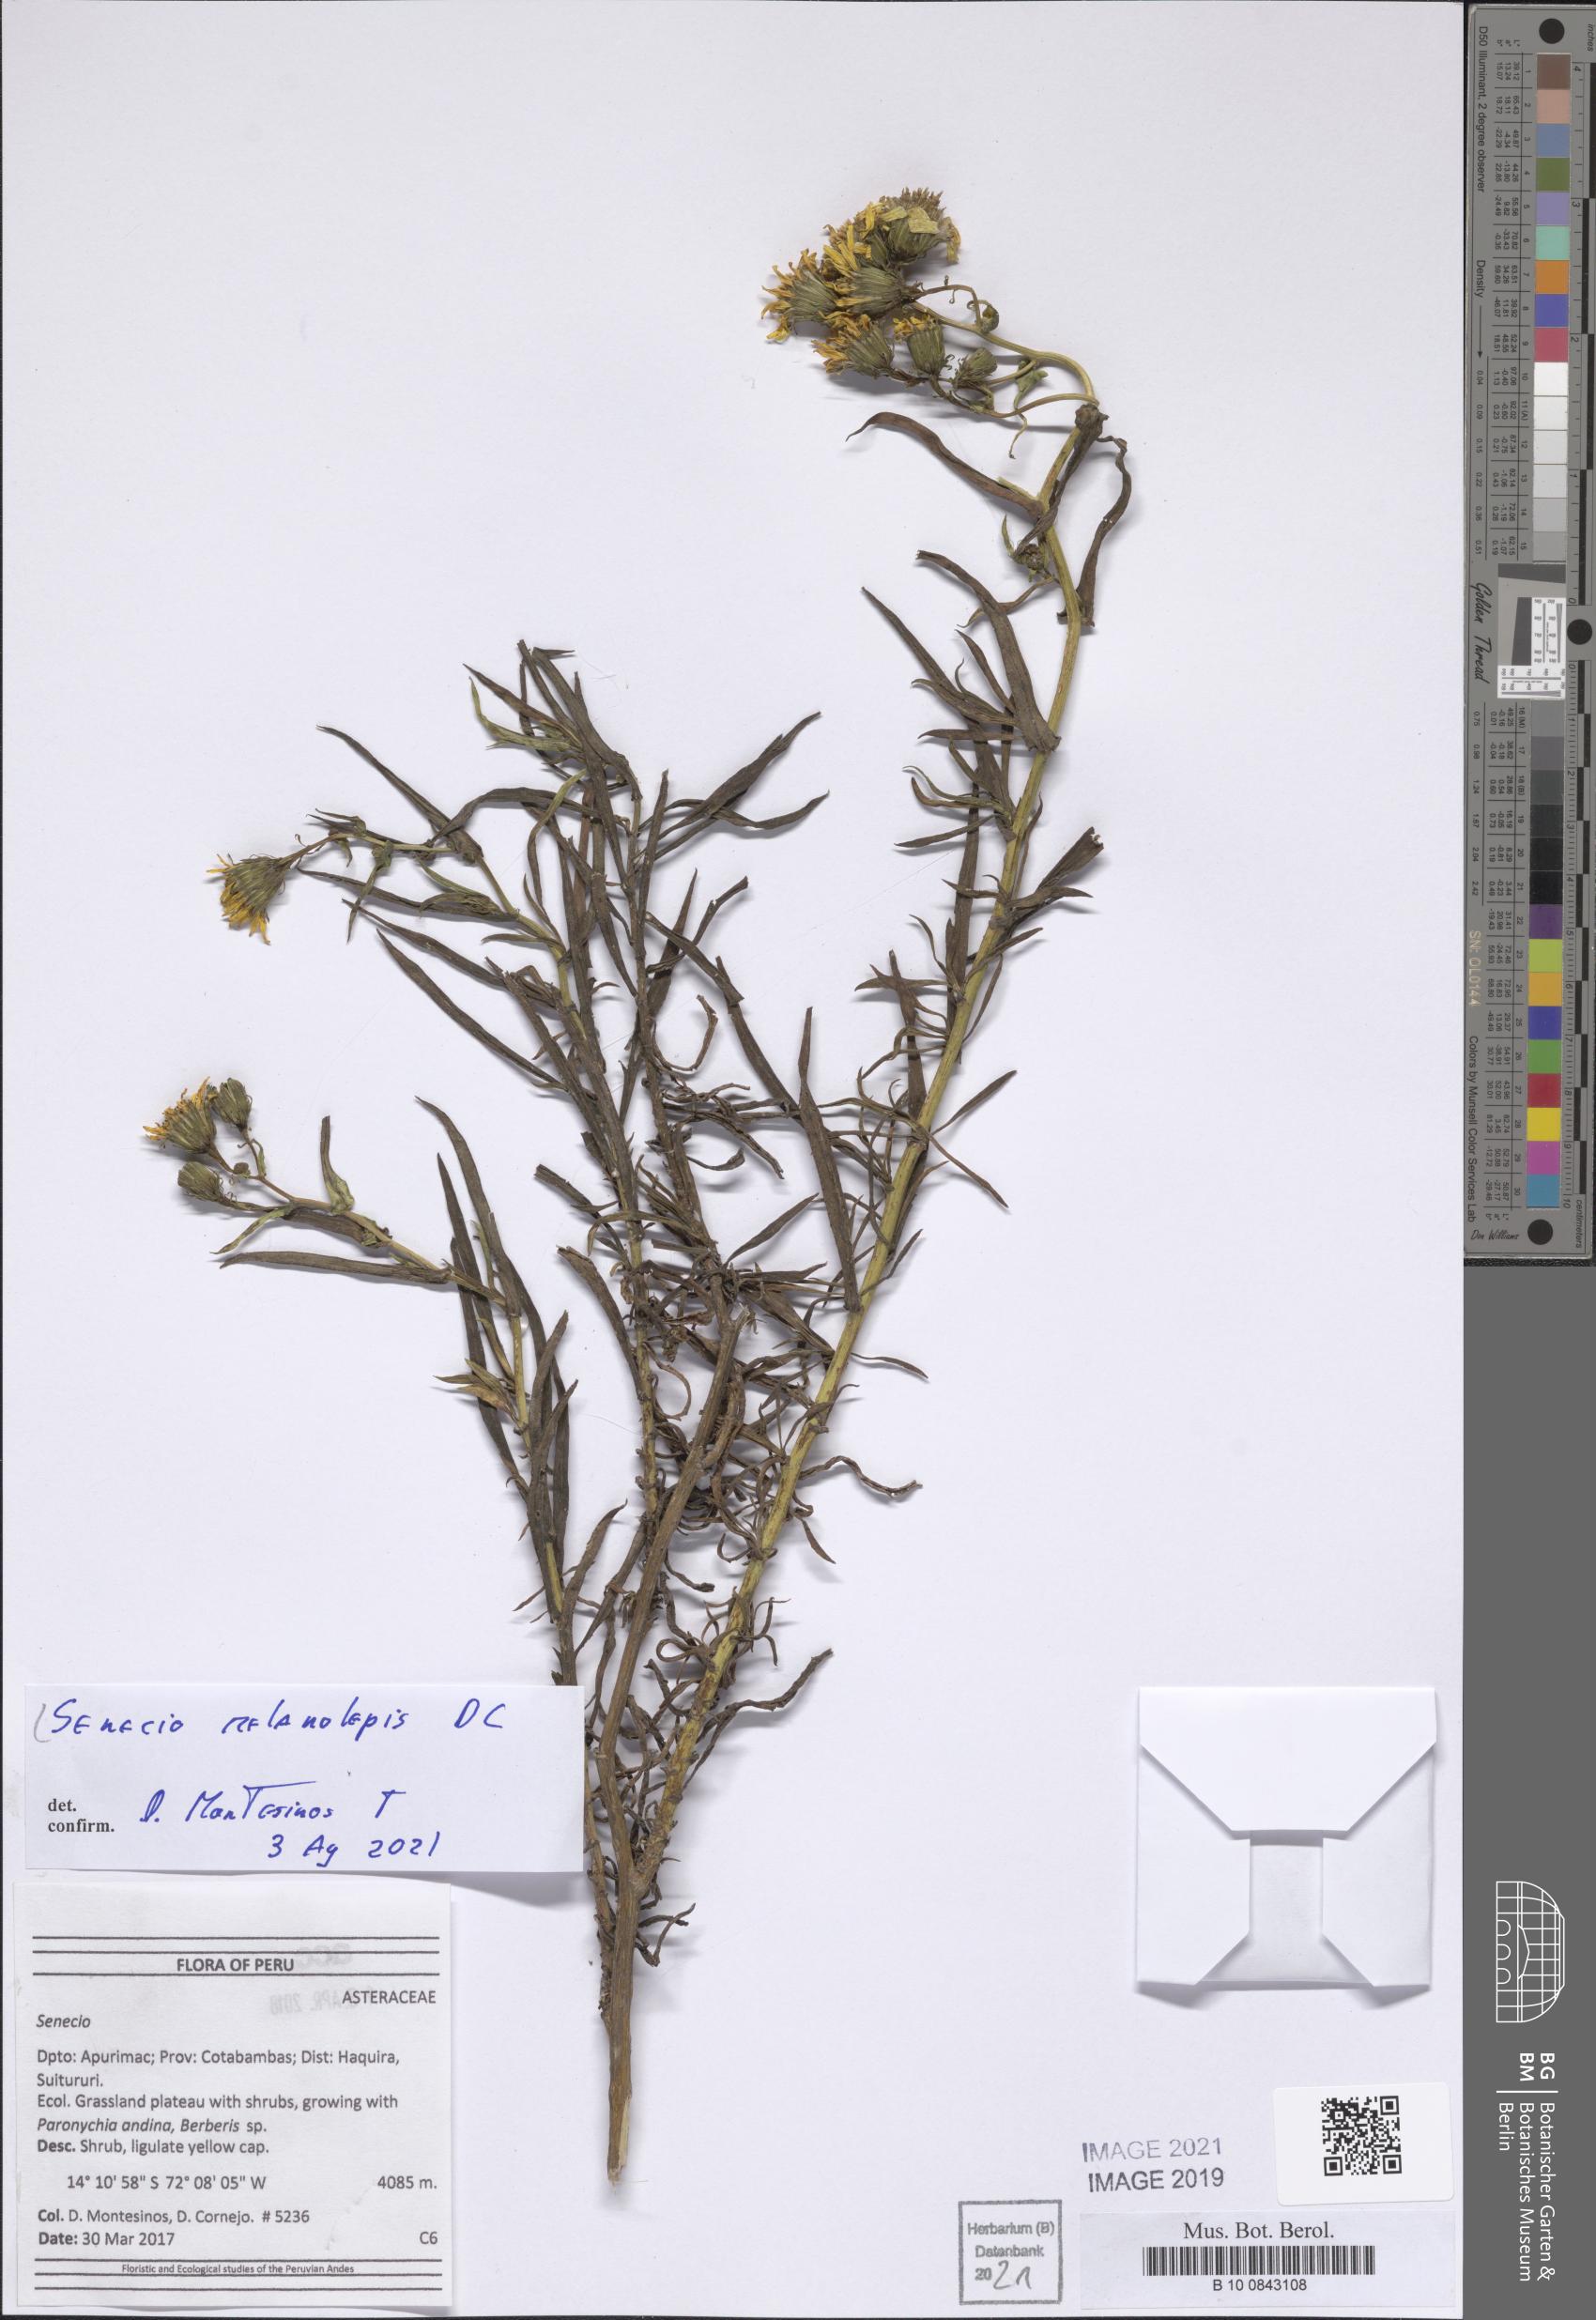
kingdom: Plantae
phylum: Tracheophyta
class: Magnoliopsida
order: Asterales
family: Asteraceae
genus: Senecio
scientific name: Senecio melanolepis
